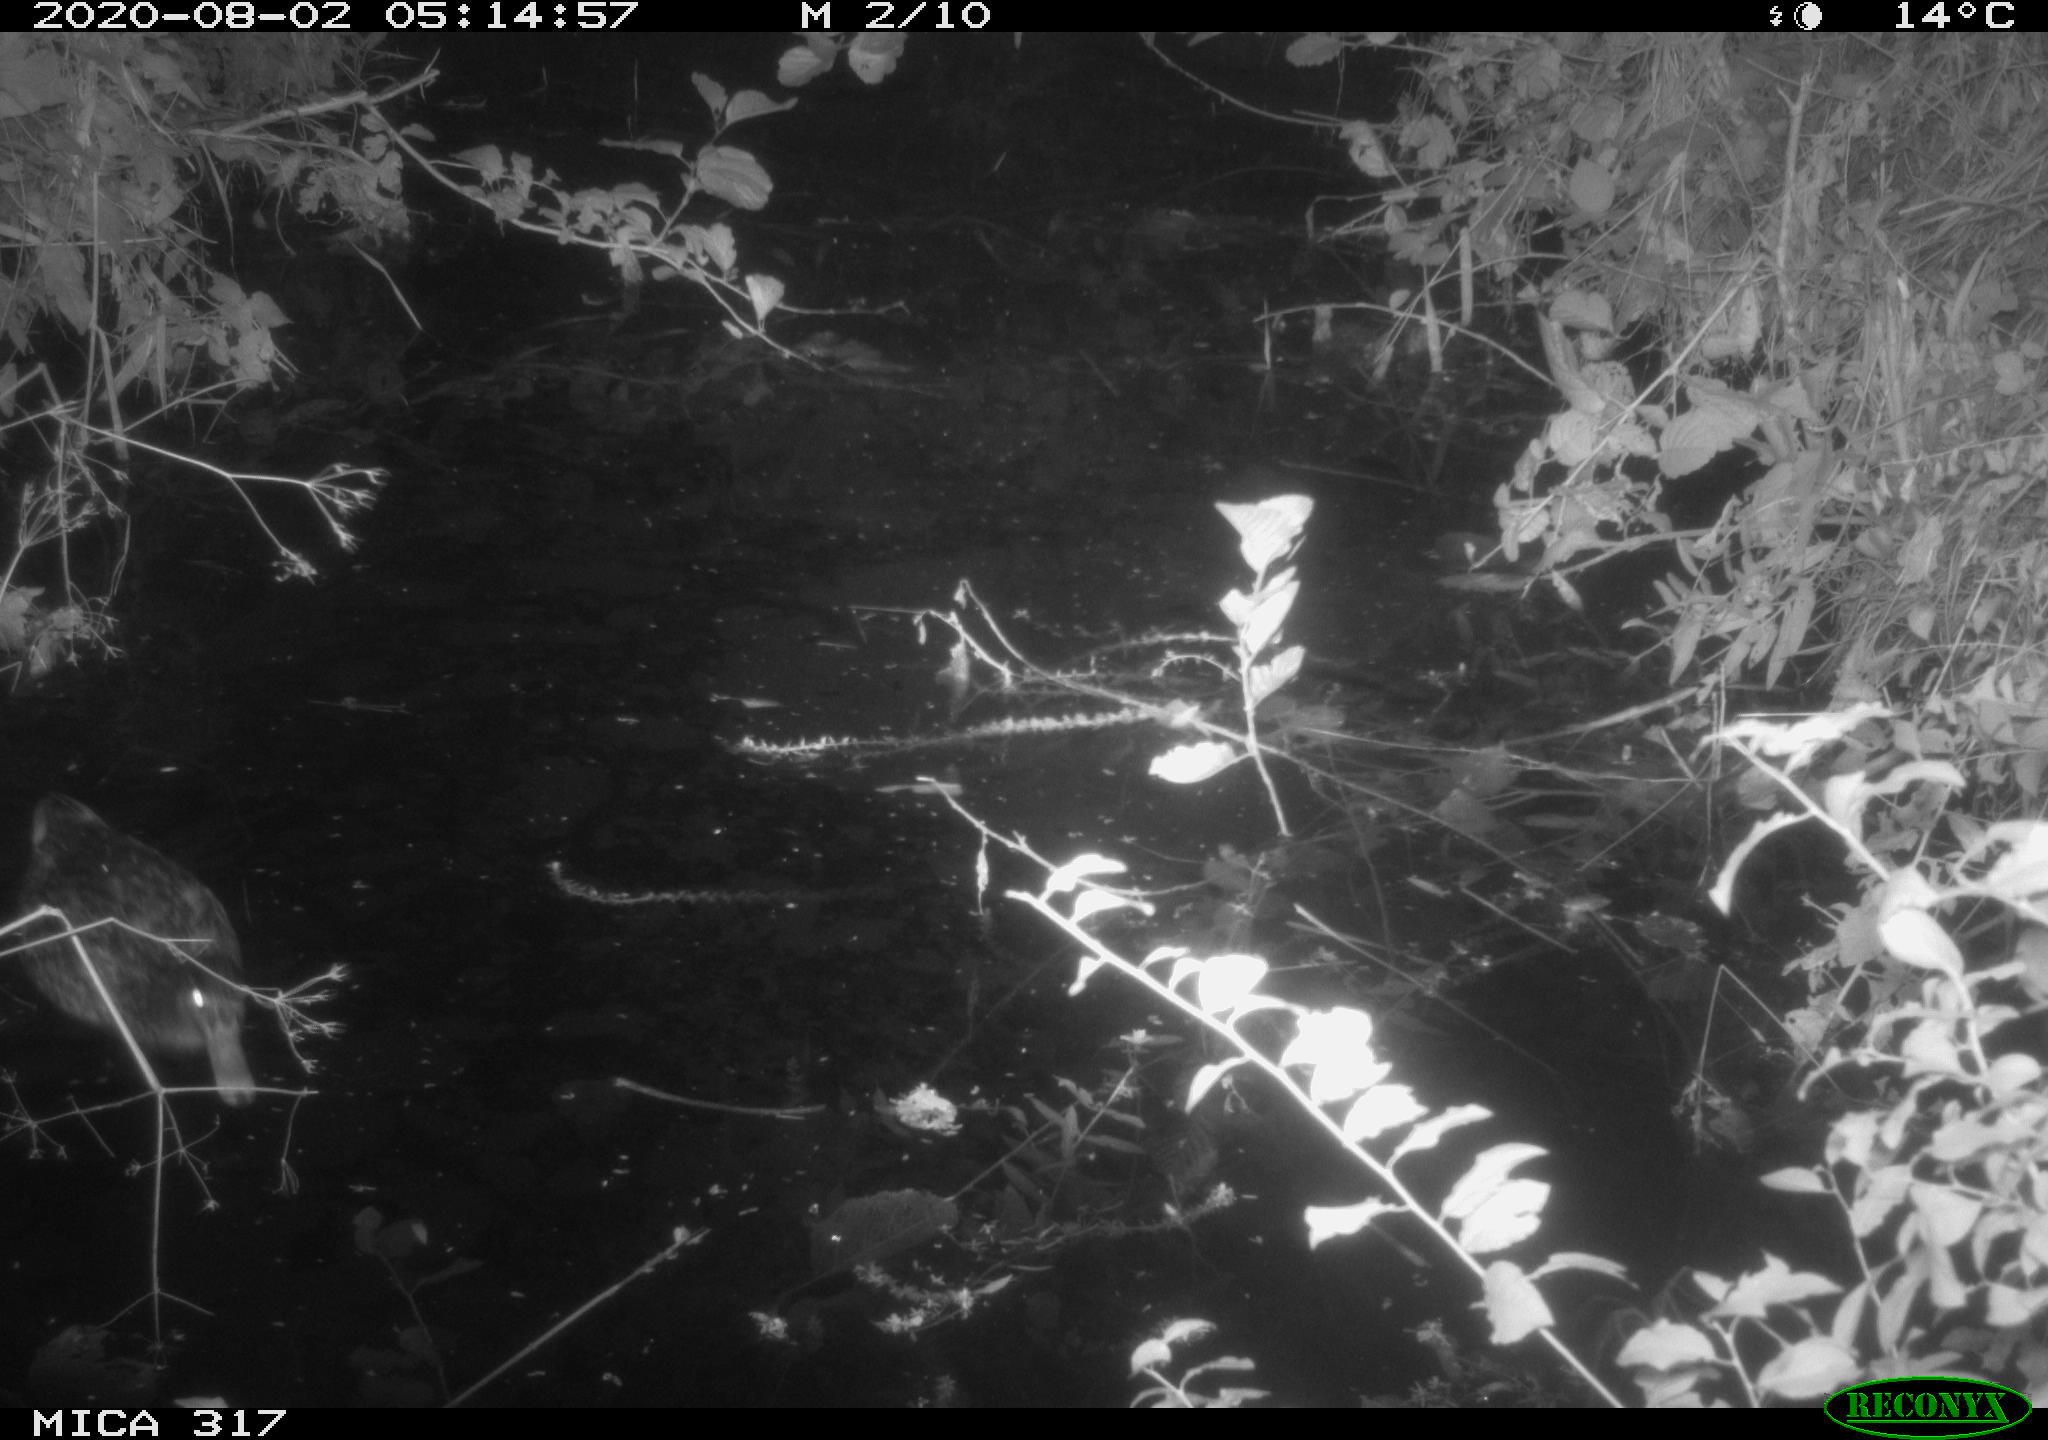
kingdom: Animalia
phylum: Chordata
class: Aves
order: Anseriformes
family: Anatidae
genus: Anas
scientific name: Anas platyrhynchos
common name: Mallard
